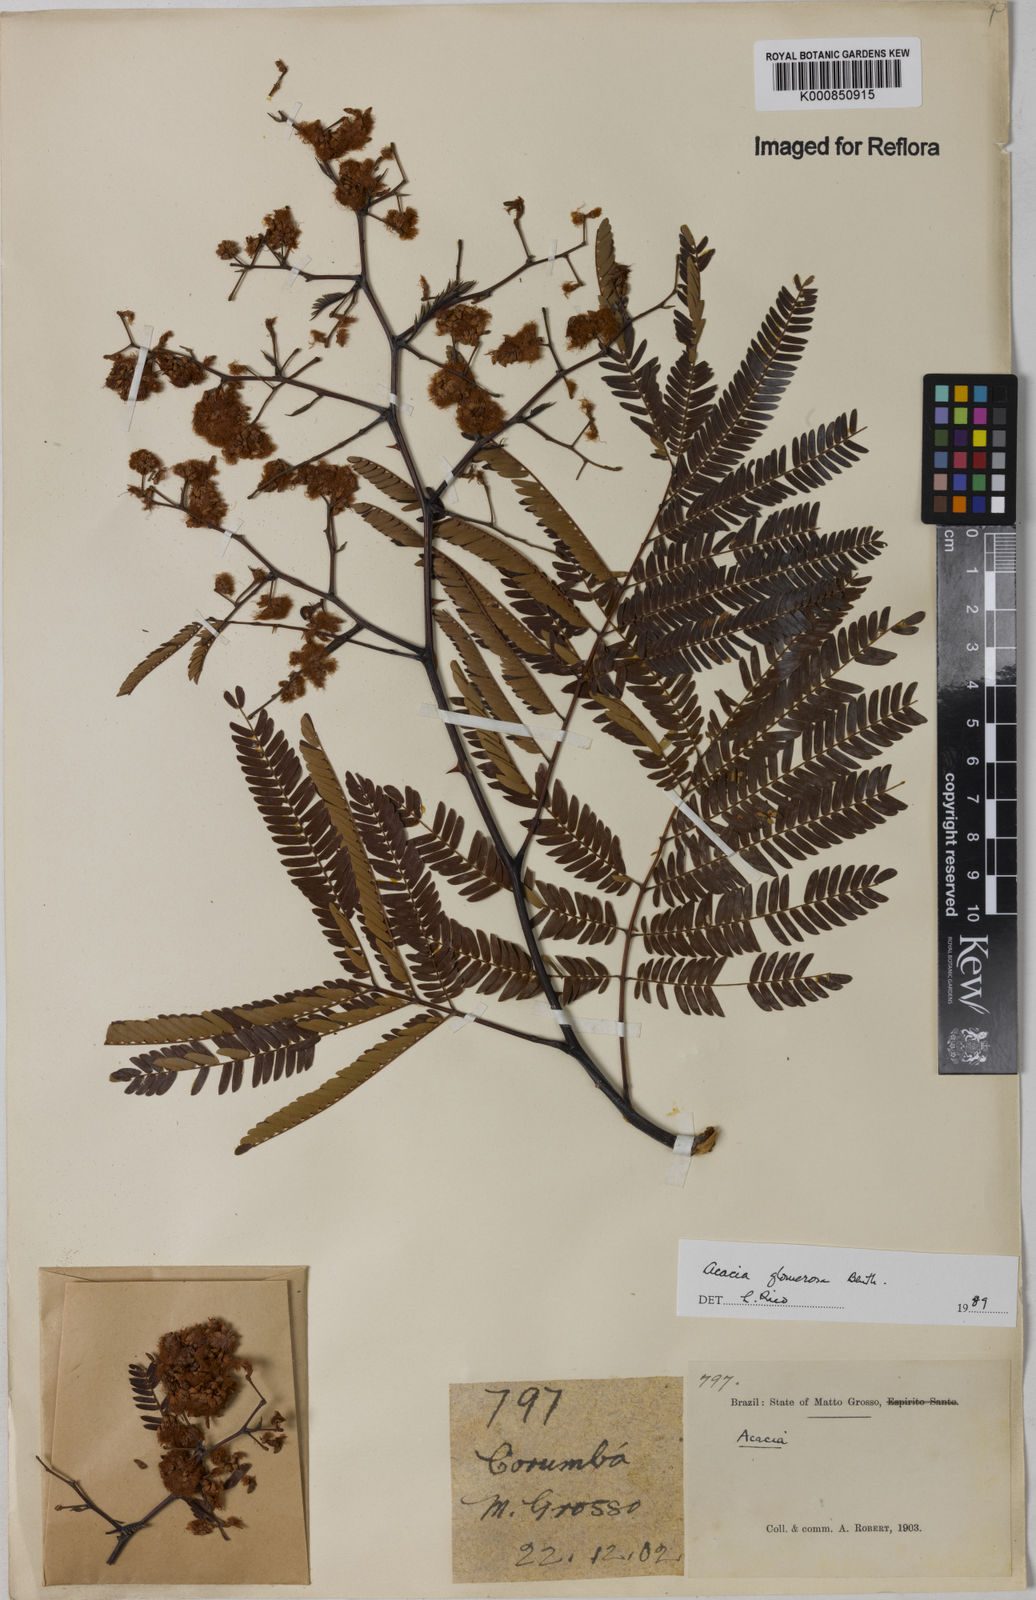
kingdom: Plantae
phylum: Tracheophyta
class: Magnoliopsida
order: Fabales
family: Fabaceae
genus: Senegalia
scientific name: Senegalia polyphylla
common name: White-tamarind
